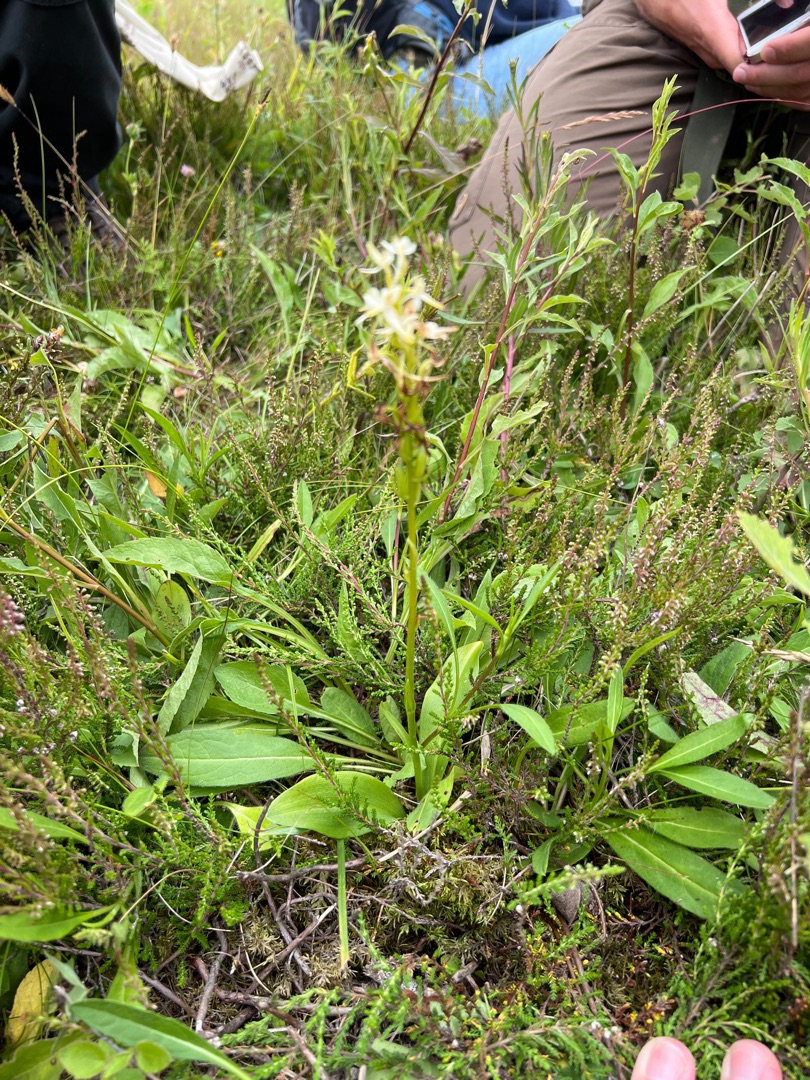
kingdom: Plantae
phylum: Tracheophyta
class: Liliopsida
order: Asparagales
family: Orchidaceae
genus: Platanthera
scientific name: Platanthera bifolia
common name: Bakke-gøgelilje
